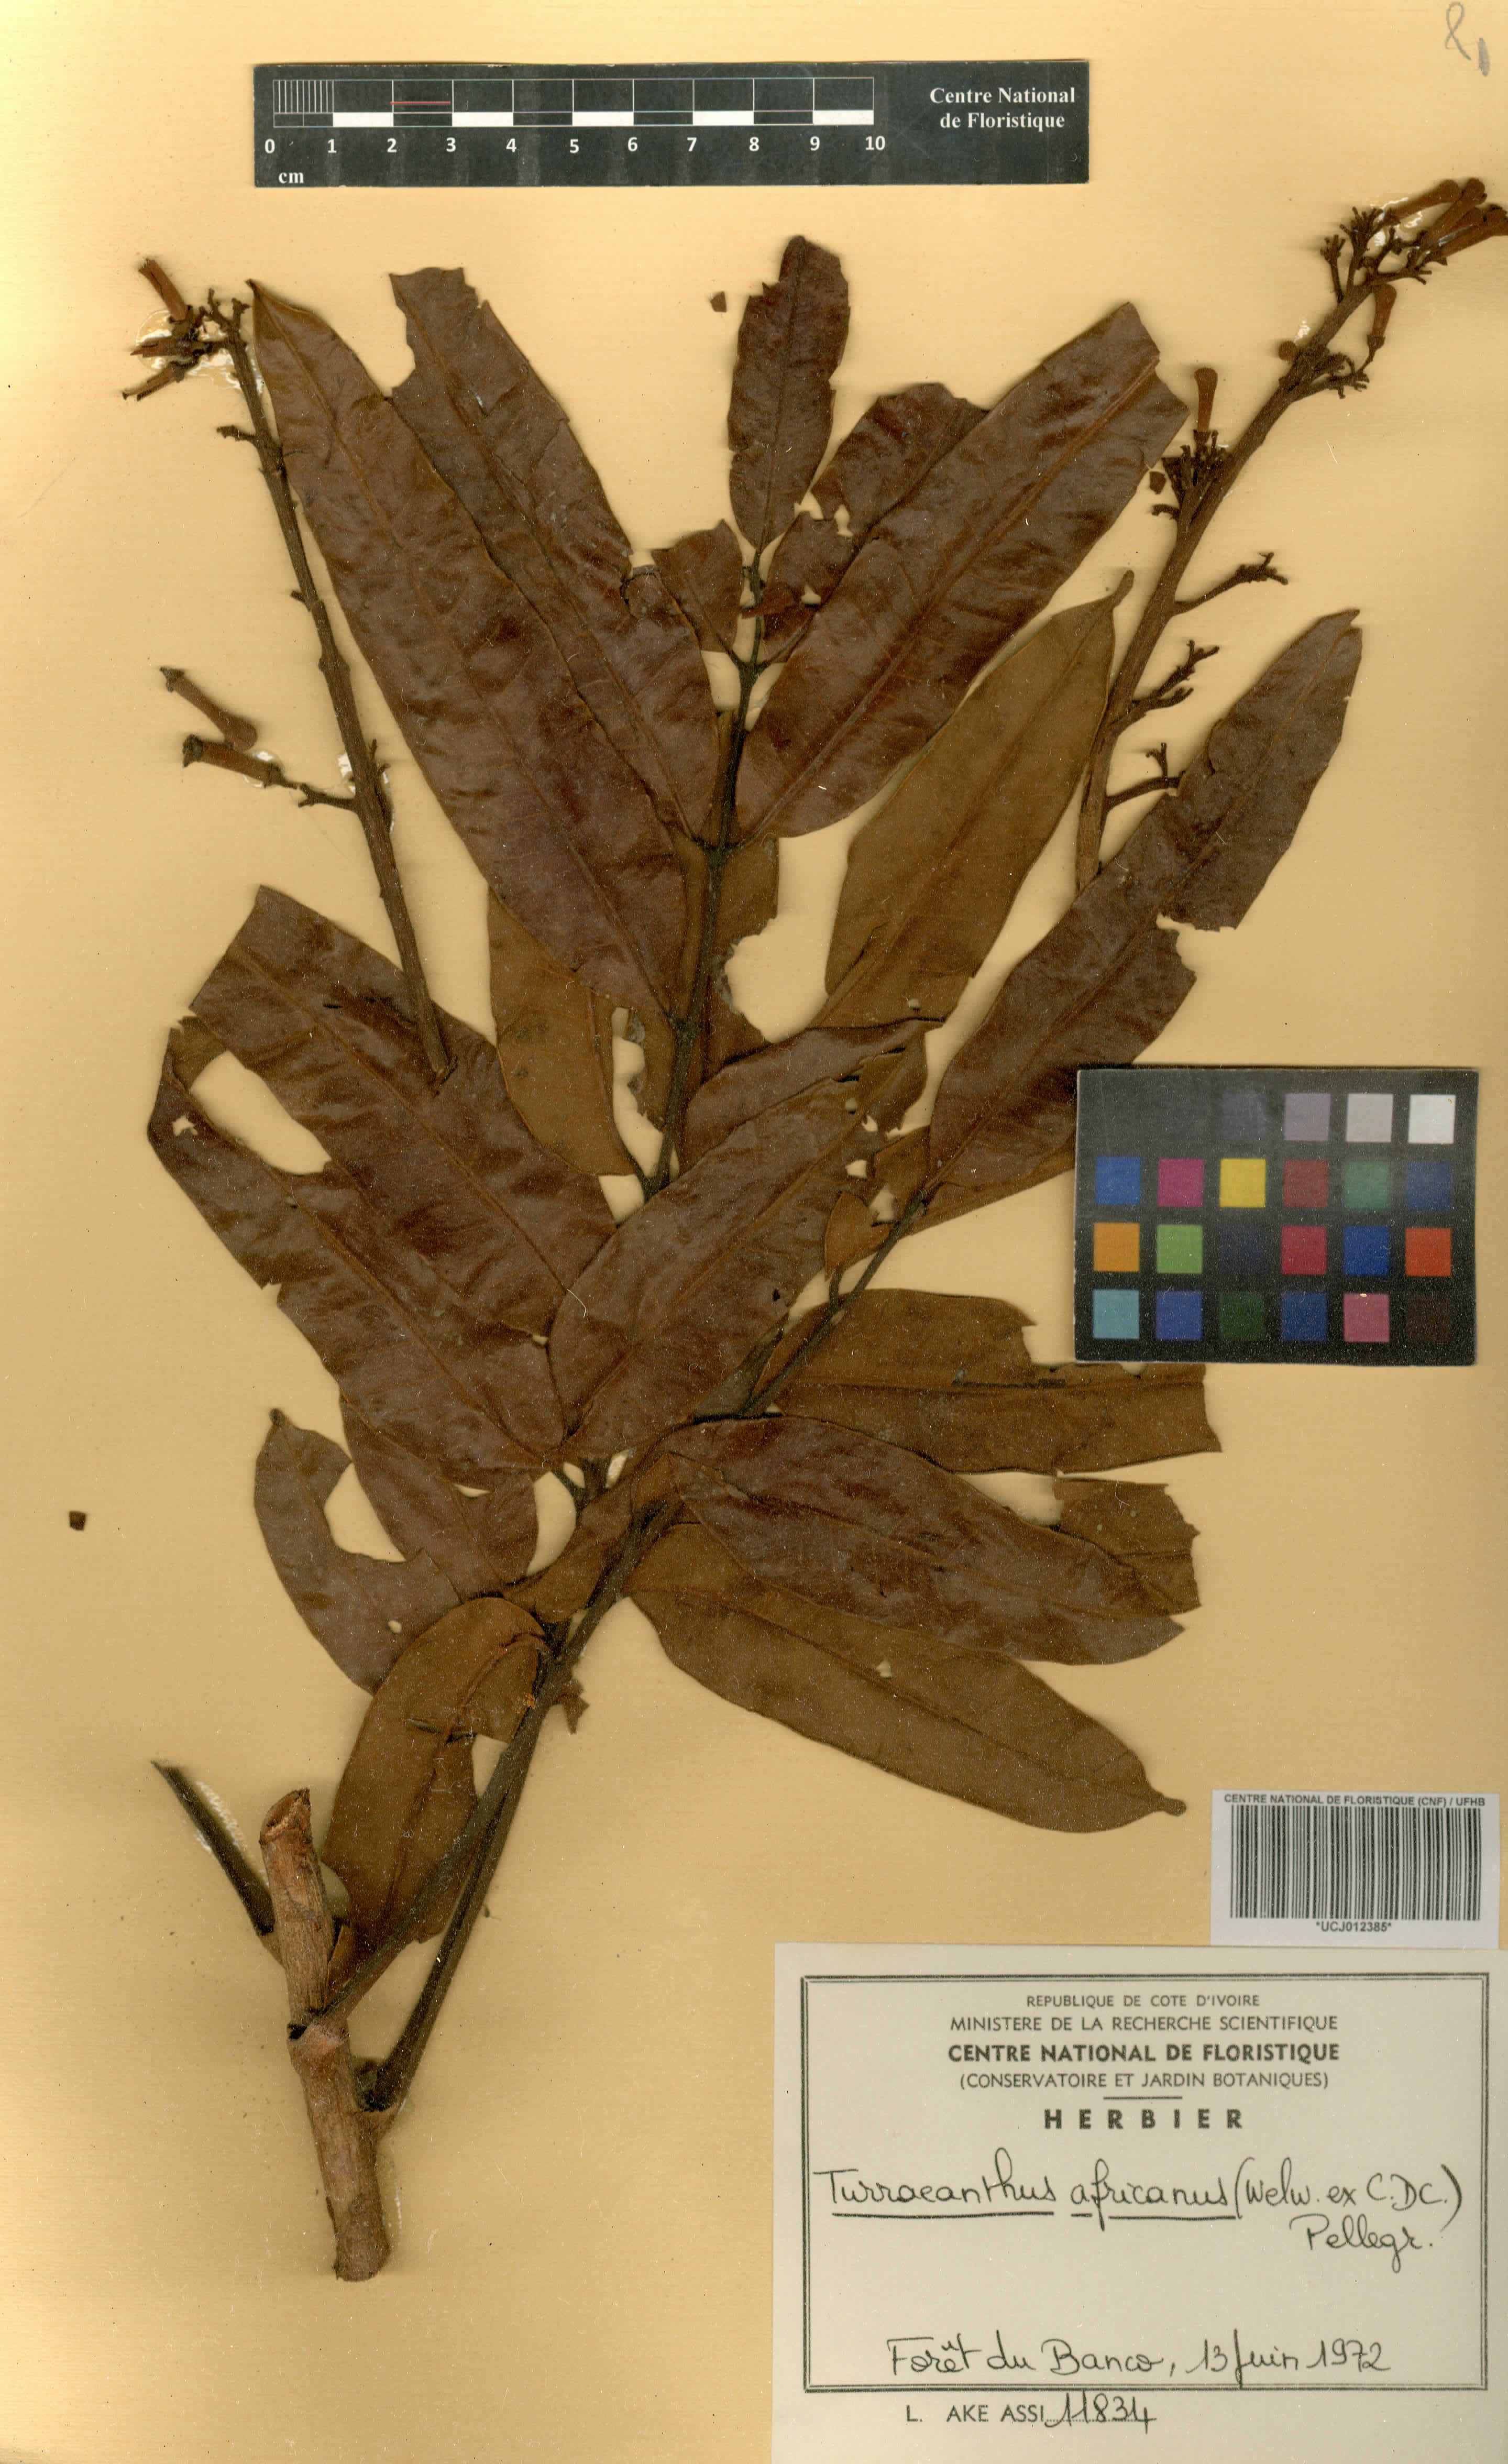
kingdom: Plantae
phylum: Tracheophyta
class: Magnoliopsida
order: Sapindales
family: Meliaceae
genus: Turraeanthus
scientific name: Turraeanthus africanus
